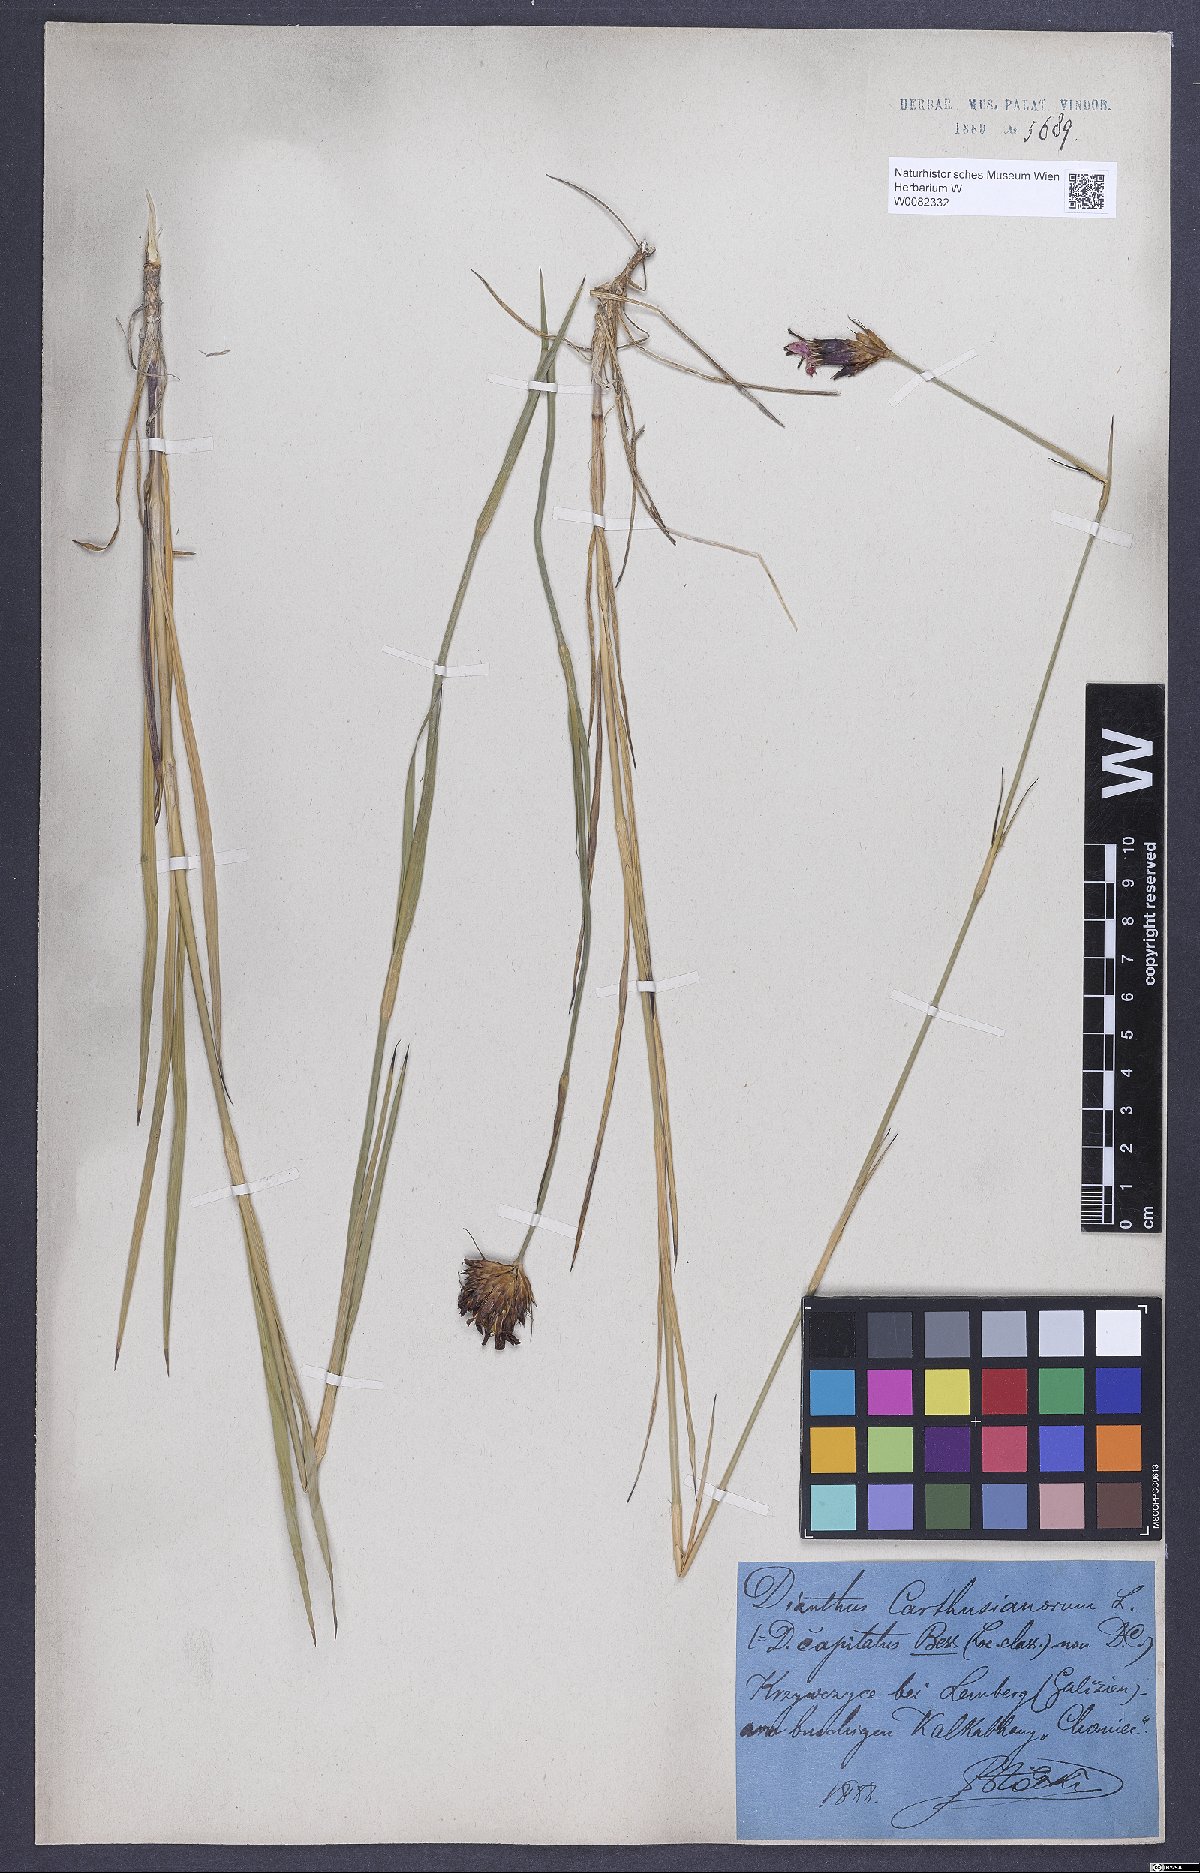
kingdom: Plantae
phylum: Tracheophyta
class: Magnoliopsida
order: Caryophyllales
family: Caryophyllaceae
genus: Dianthus
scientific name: Dianthus carthusianorum
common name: Carthusian pink
